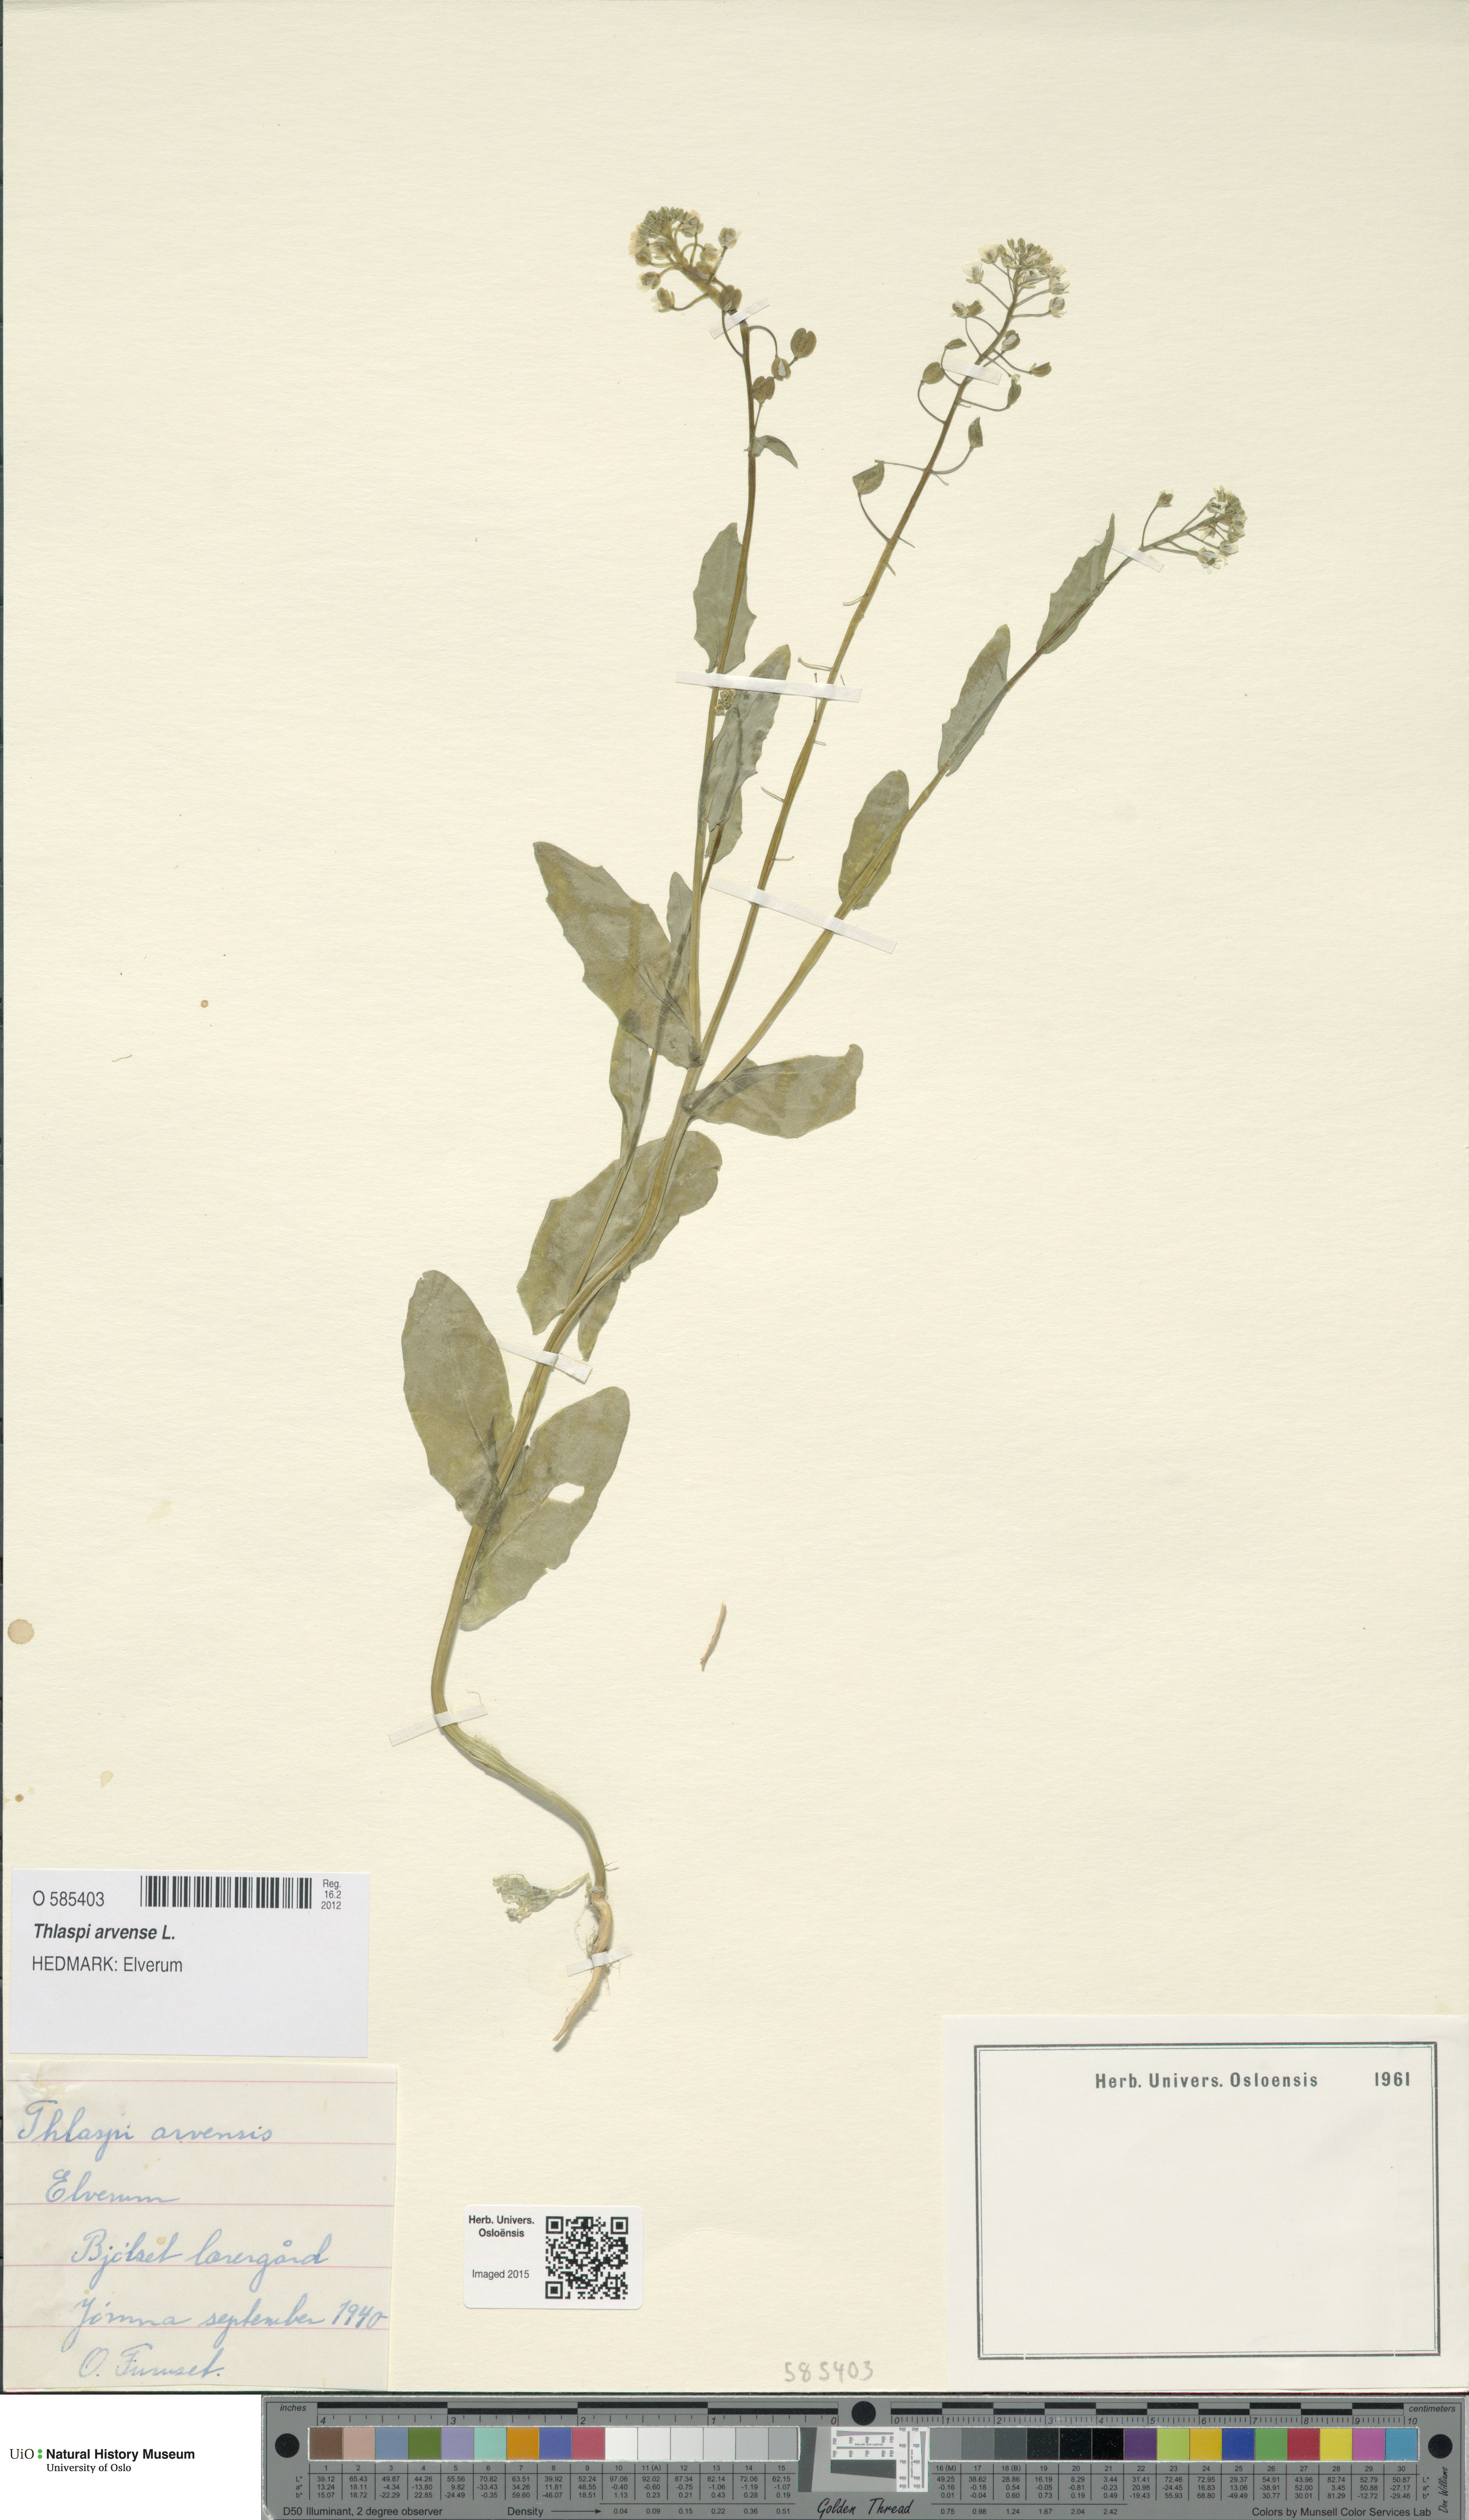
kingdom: Plantae
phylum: Tracheophyta
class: Magnoliopsida
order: Brassicales
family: Brassicaceae
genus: Thlaspi
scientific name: Thlaspi arvense
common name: Field pennycress
